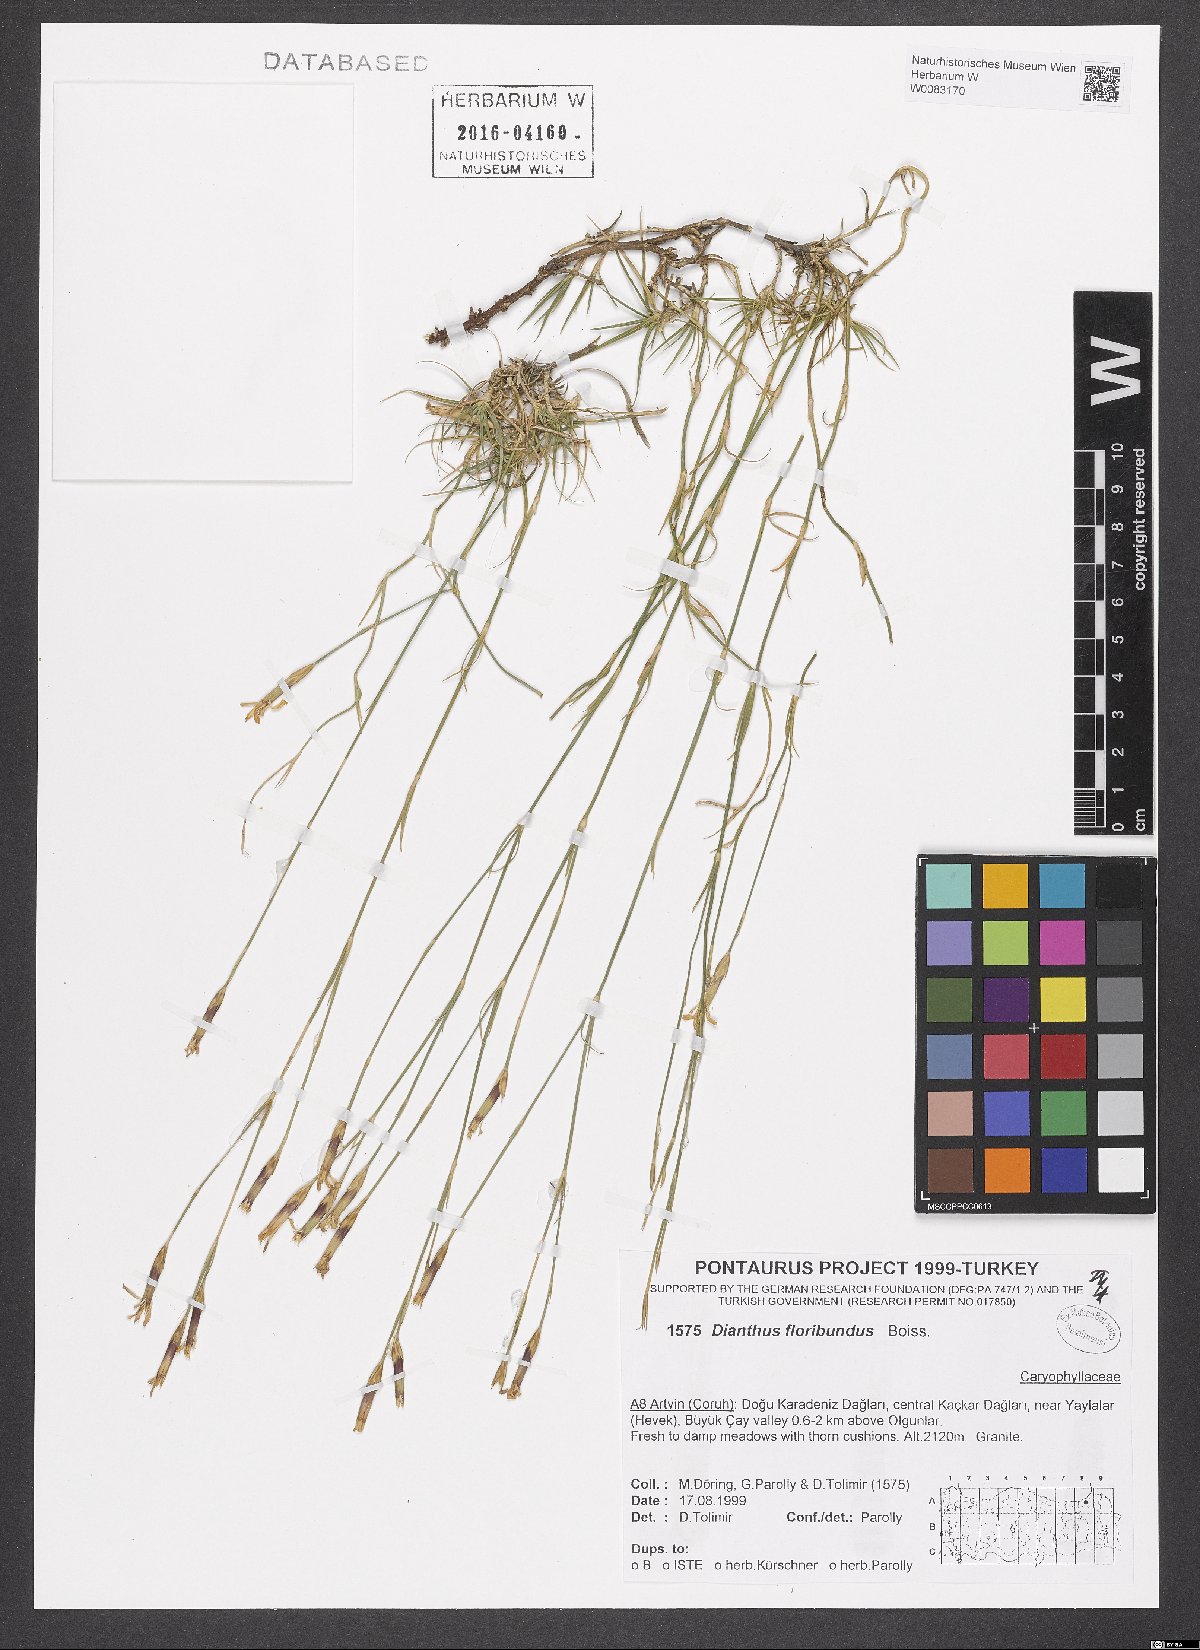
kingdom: Plantae
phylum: Tracheophyta
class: Magnoliopsida
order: Caryophyllales
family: Caryophyllaceae
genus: Dianthus
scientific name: Dianthus floribundus
